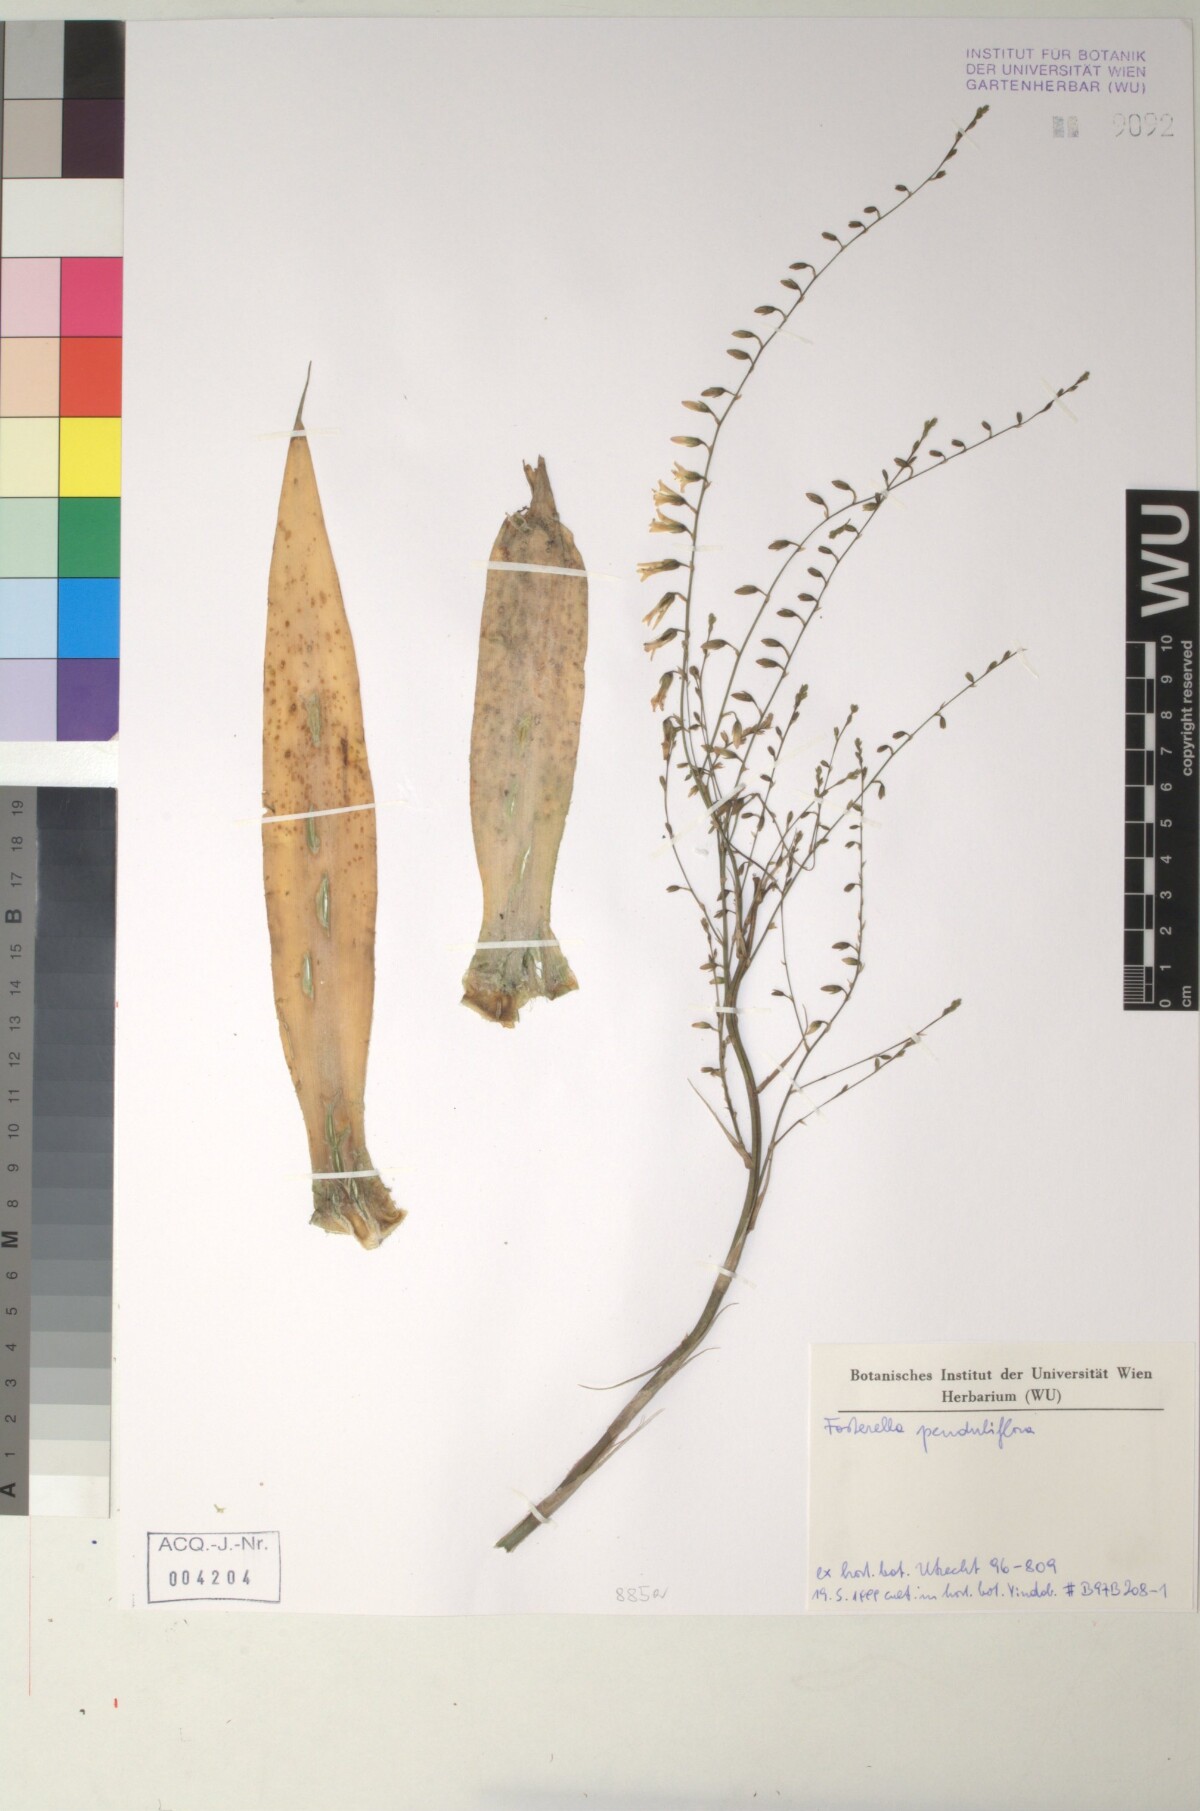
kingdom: Plantae
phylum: Tracheophyta
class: Liliopsida
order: Poales
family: Bromeliaceae
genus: Fosterella
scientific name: Fosterella penduliflora
